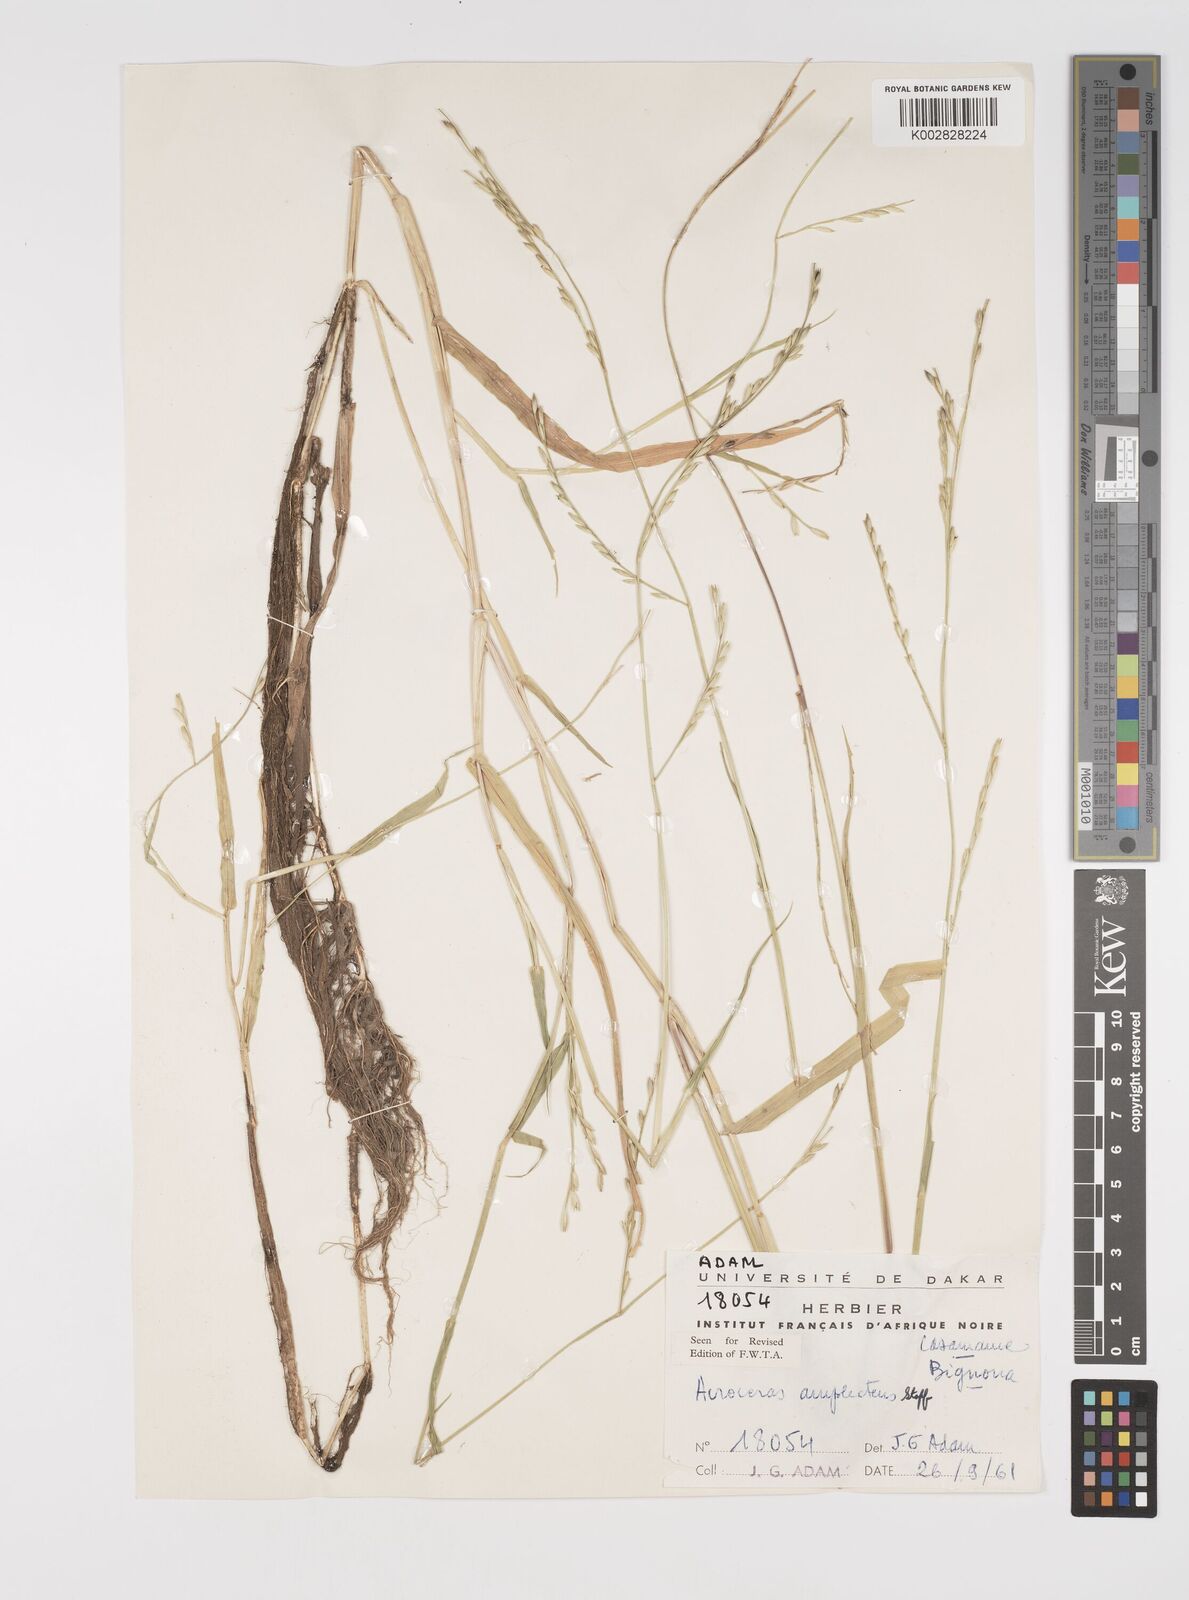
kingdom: Plantae
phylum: Tracheophyta
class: Liliopsida
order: Poales
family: Poaceae
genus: Acroceras
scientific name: Acroceras amplectens
